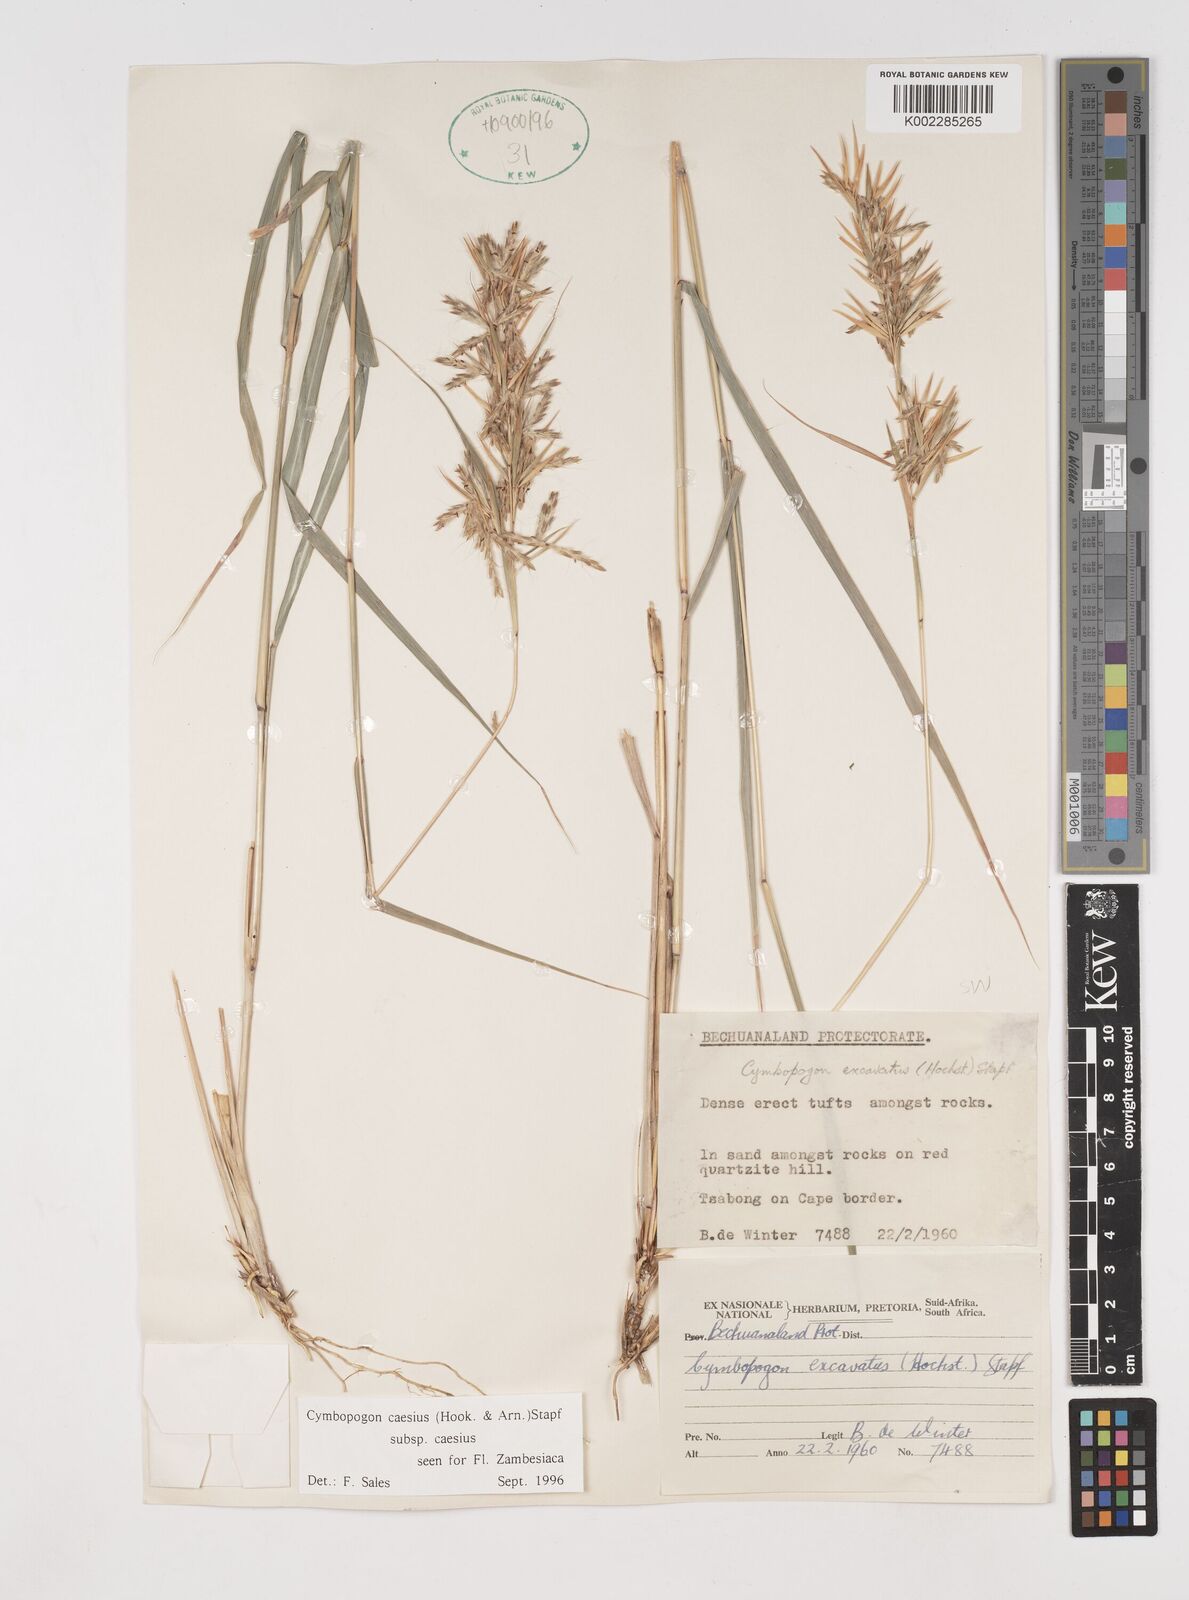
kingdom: Plantae
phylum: Tracheophyta
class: Liliopsida
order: Poales
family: Poaceae
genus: Cymbopogon
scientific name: Cymbopogon caesius
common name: Kachi grass
